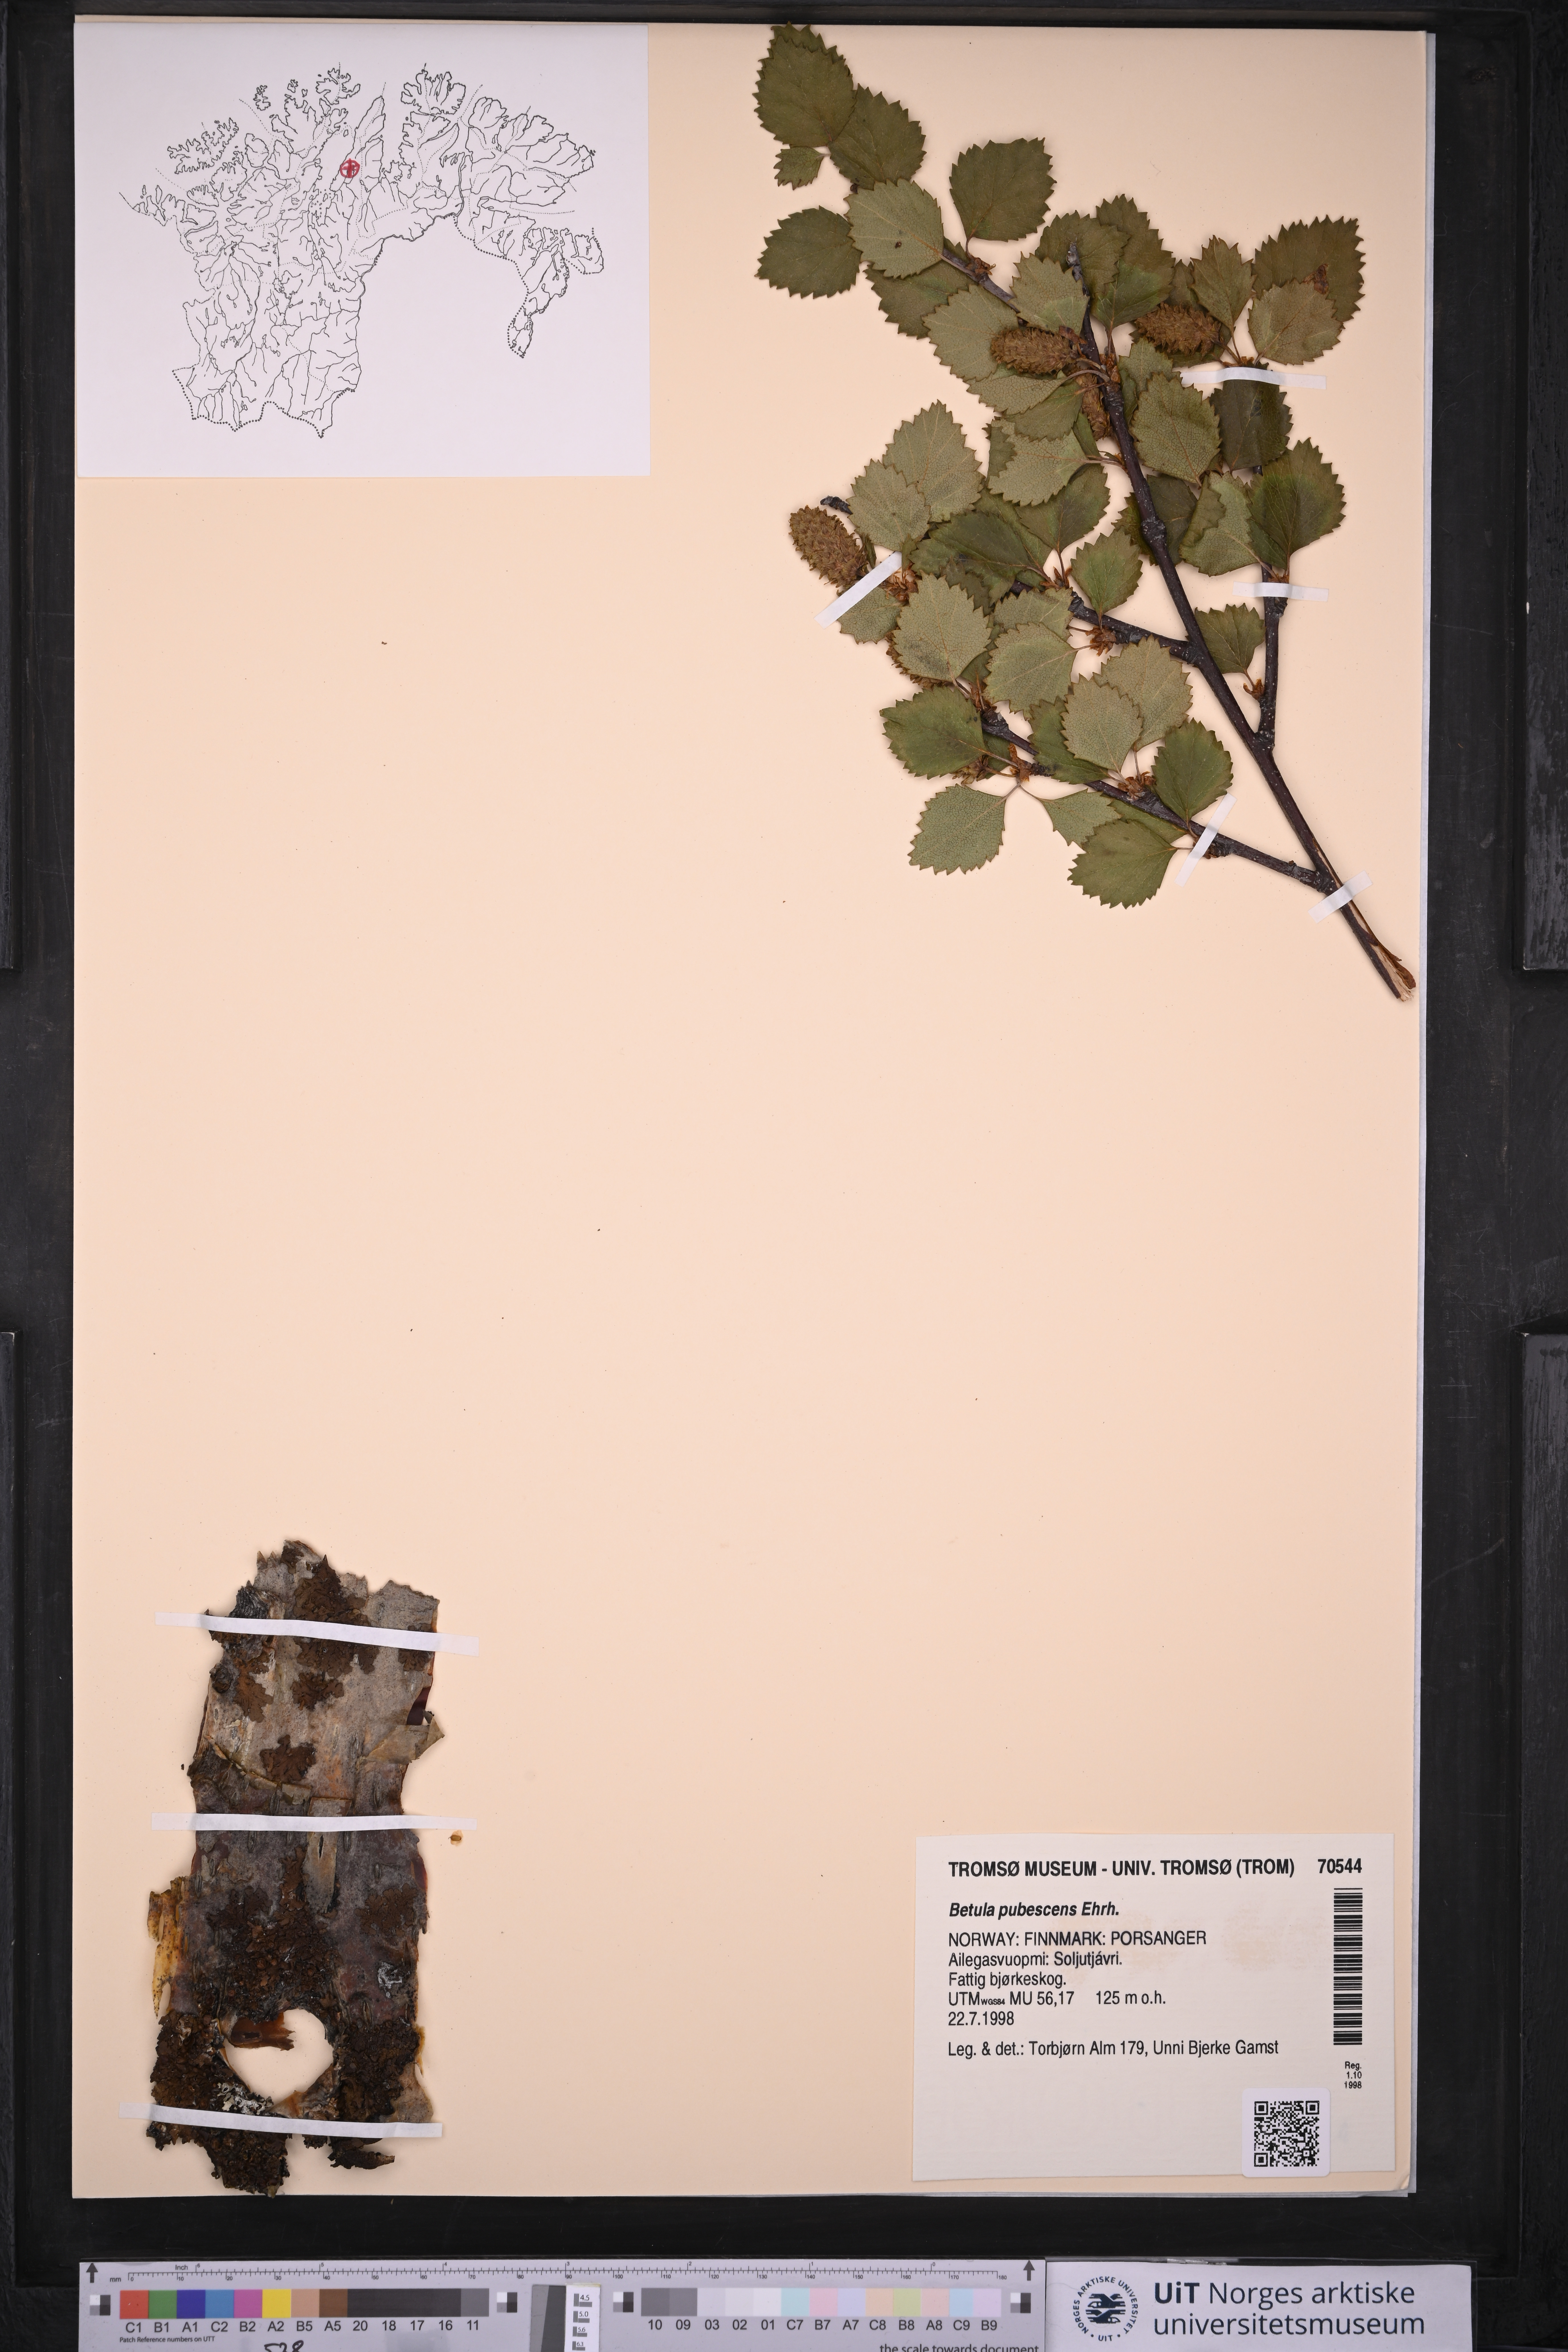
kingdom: Plantae
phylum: Tracheophyta
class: Magnoliopsida
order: Fagales
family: Betulaceae
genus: Betula
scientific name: Betula pubescens
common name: Downy birch
